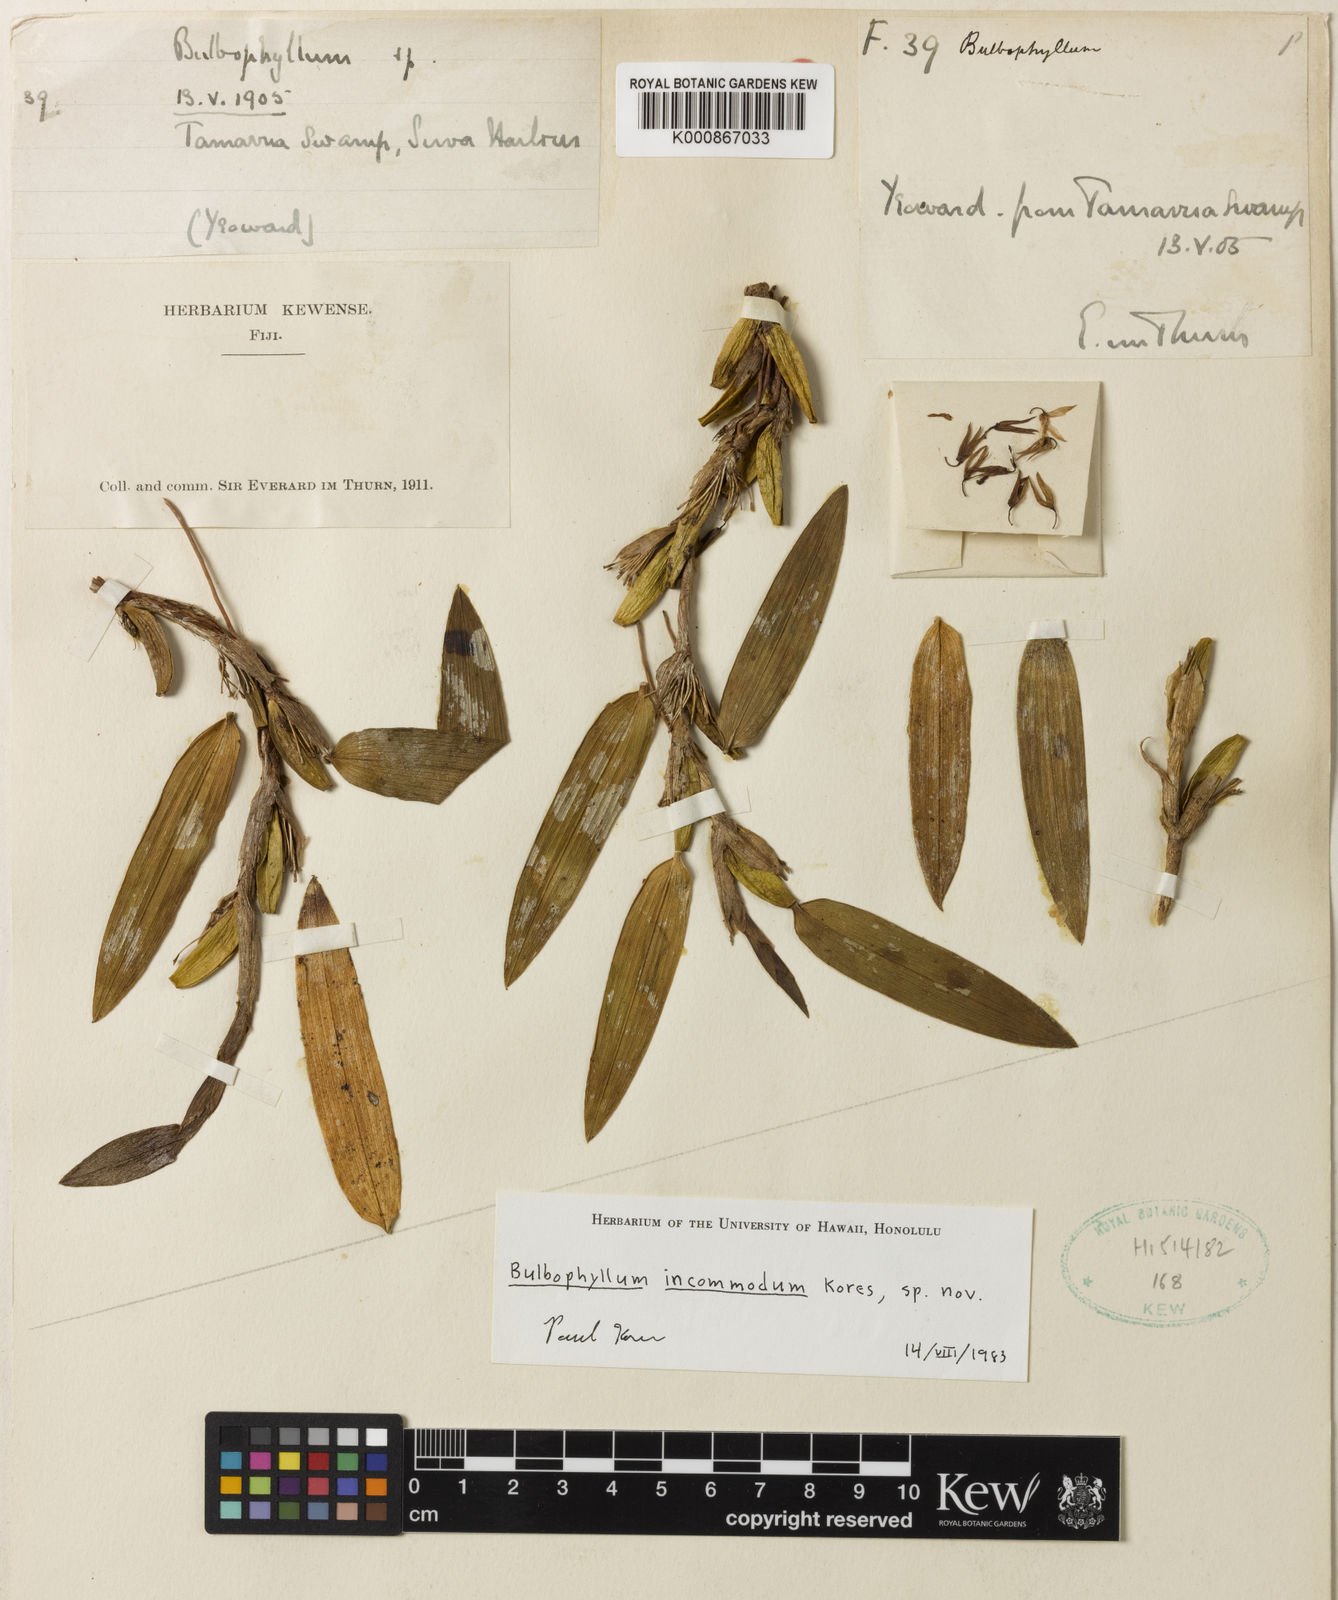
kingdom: Plantae
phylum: Tracheophyta
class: Liliopsida
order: Asparagales
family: Orchidaceae
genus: Bulbophyllum
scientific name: Bulbophyllum incommodum
